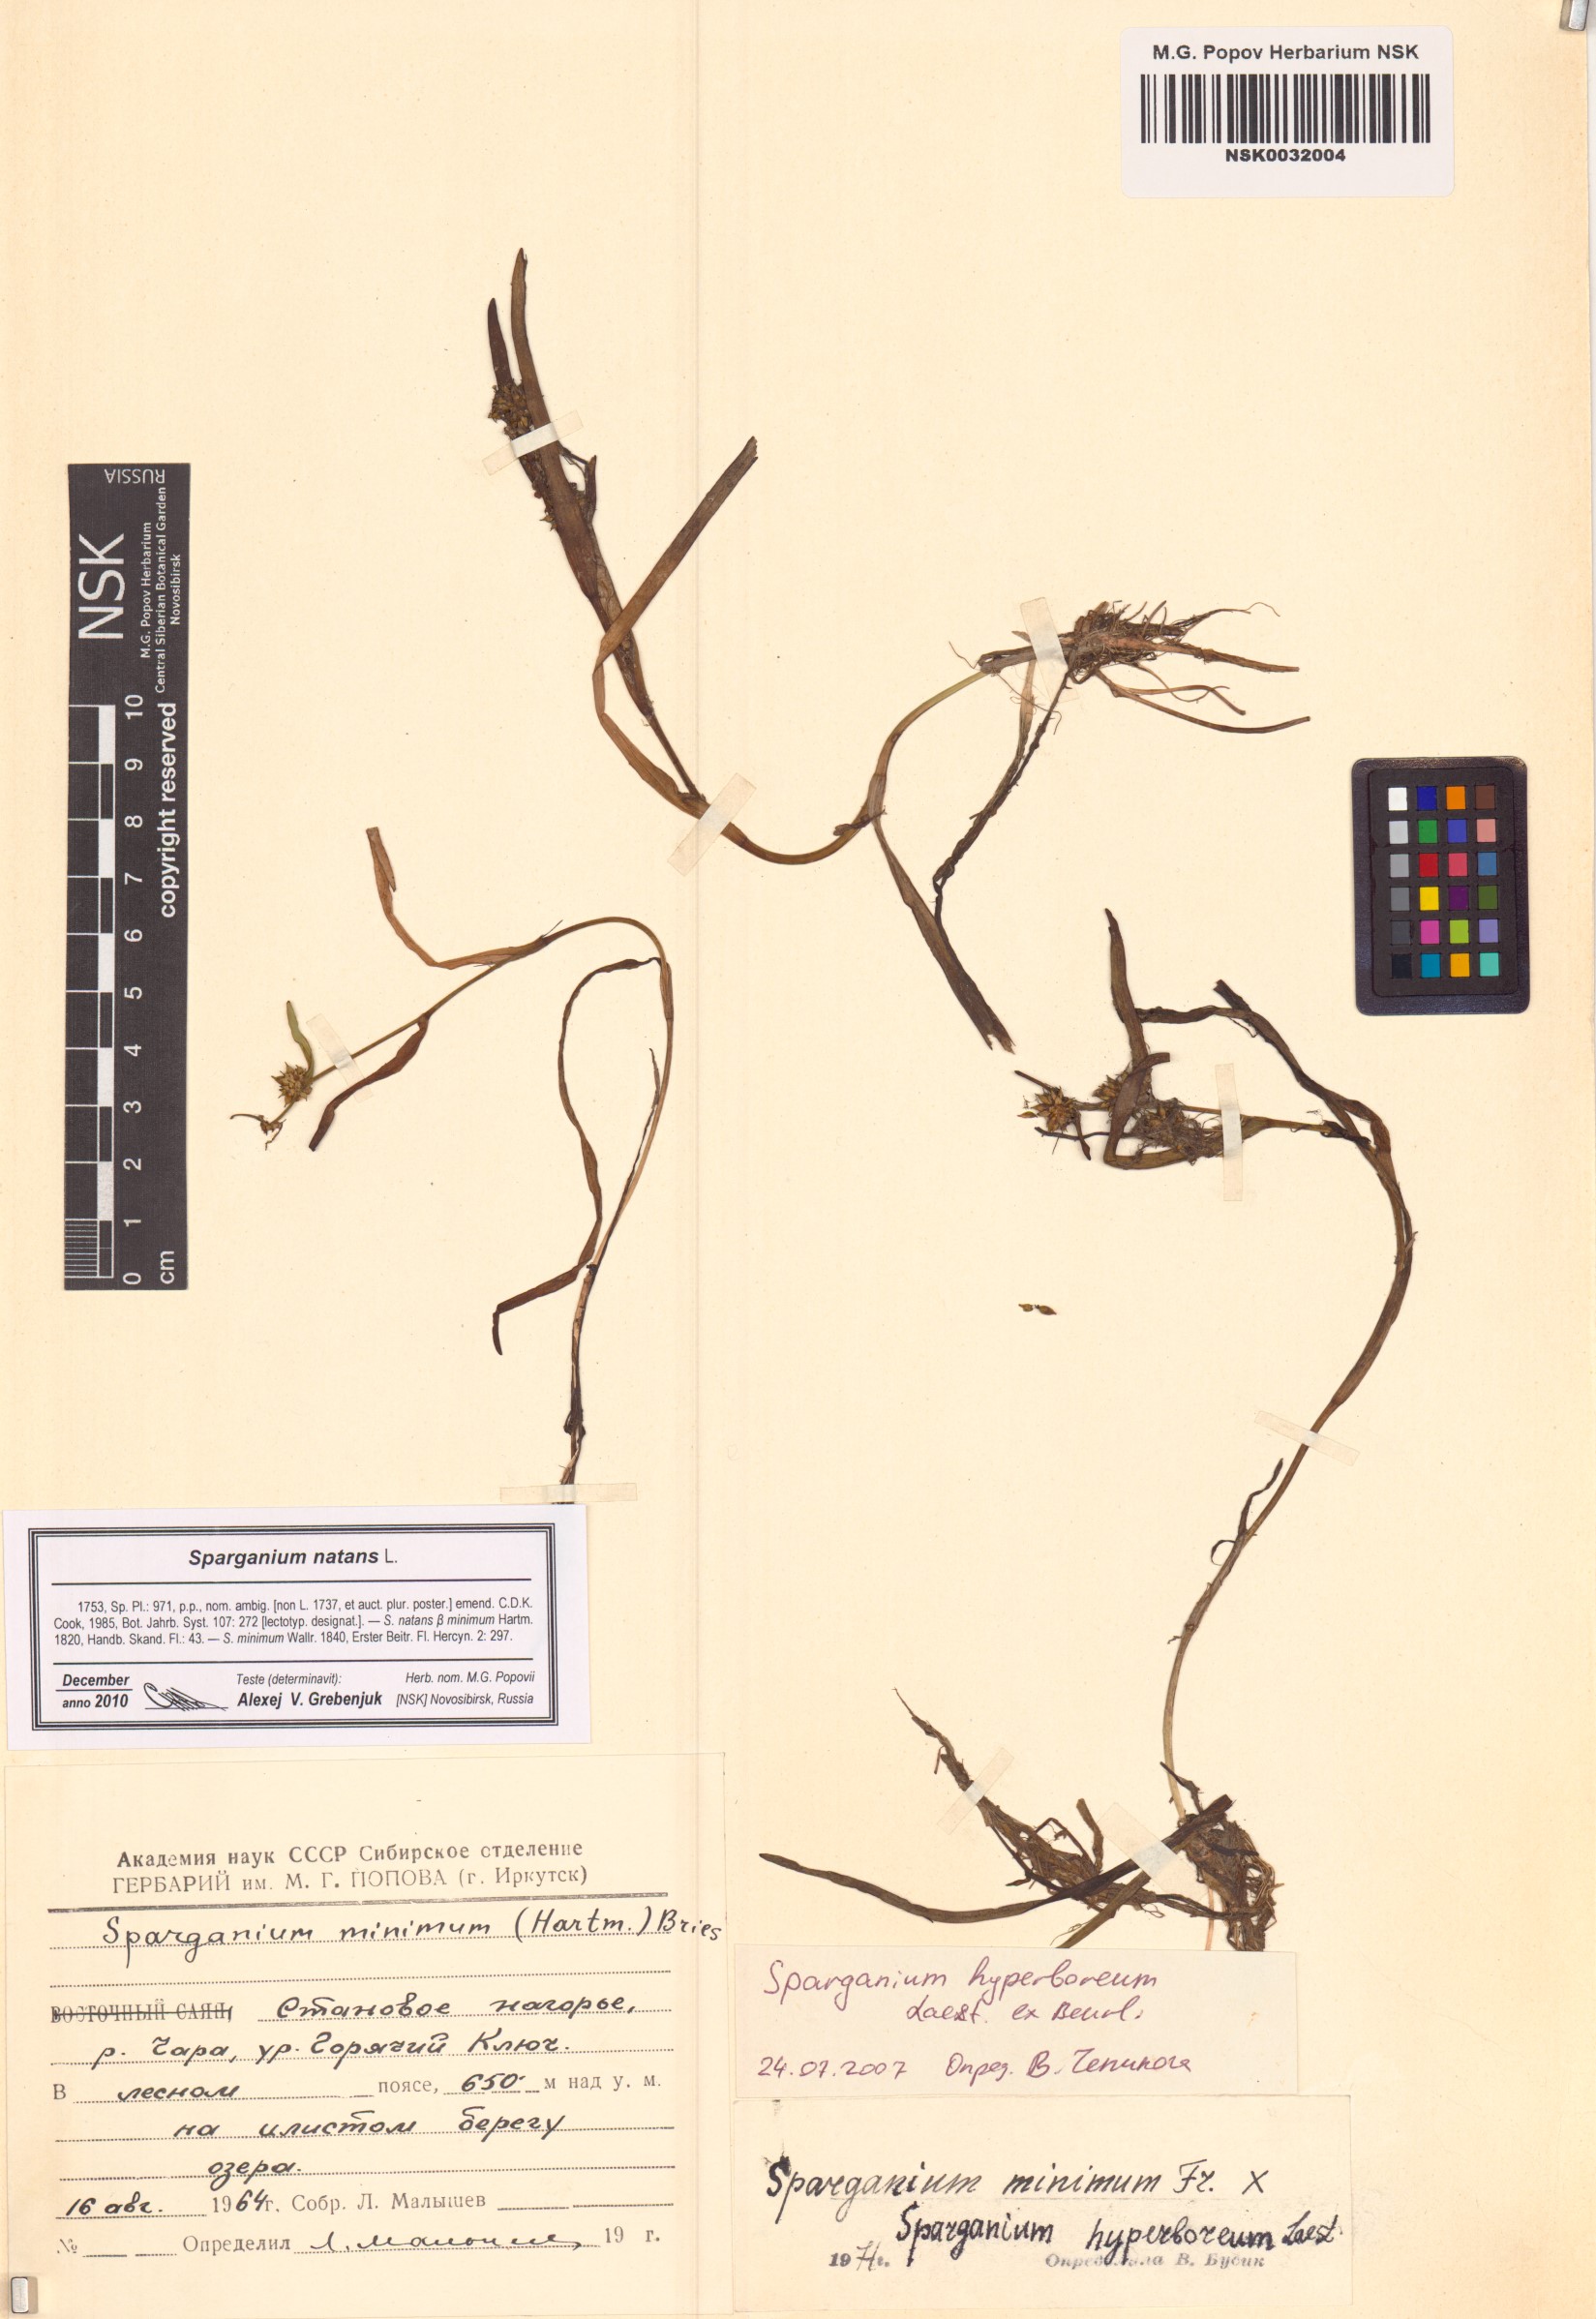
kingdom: Plantae
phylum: Tracheophyta
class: Liliopsida
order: Poales
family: Typhaceae
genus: Sparganium
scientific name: Sparganium natans
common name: Least bur-reed
